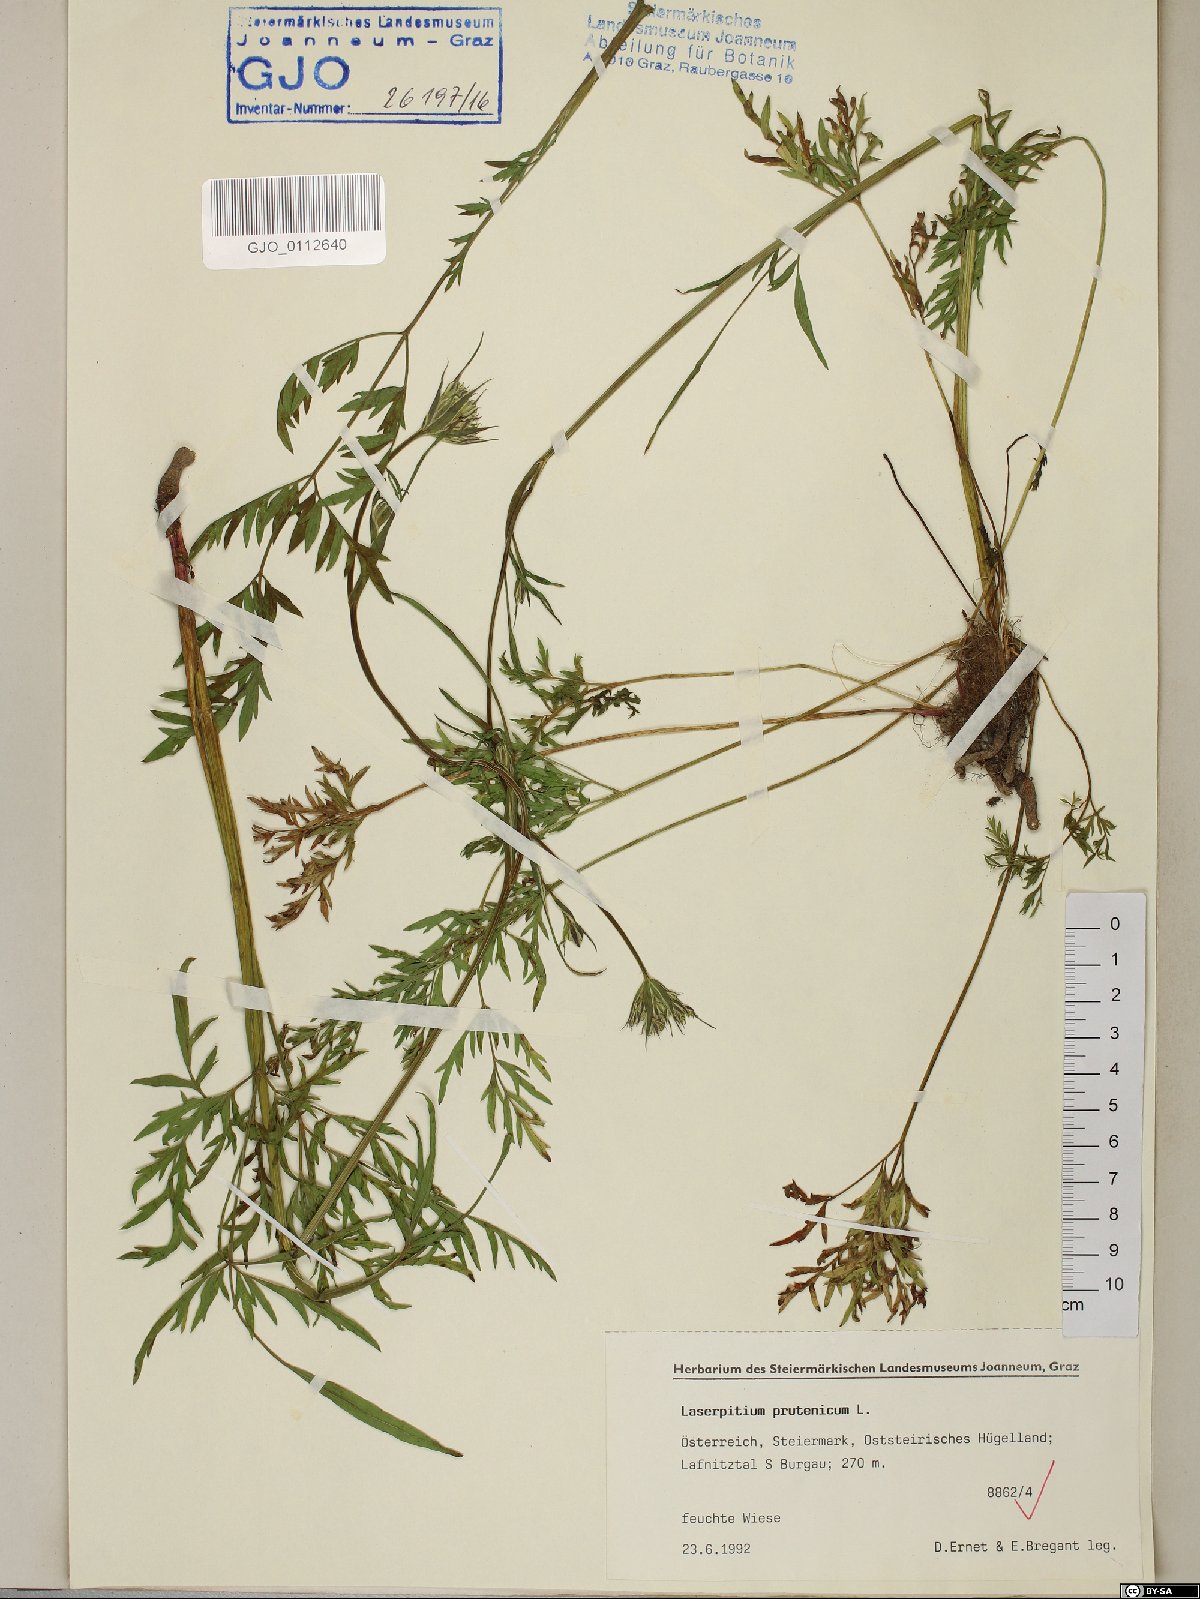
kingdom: Plantae
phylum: Tracheophyta
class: Magnoliopsida
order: Apiales
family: Apiaceae
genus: Silphiodaucus
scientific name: Silphiodaucus prutenicus
